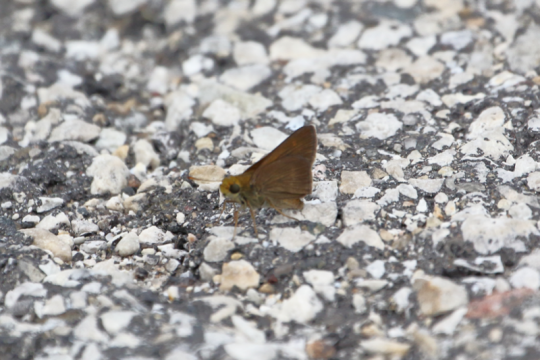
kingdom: Animalia
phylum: Arthropoda
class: Insecta
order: Lepidoptera
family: Hesperiidae
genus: Euphyes
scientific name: Euphyes vestris
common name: Dun Skipper
